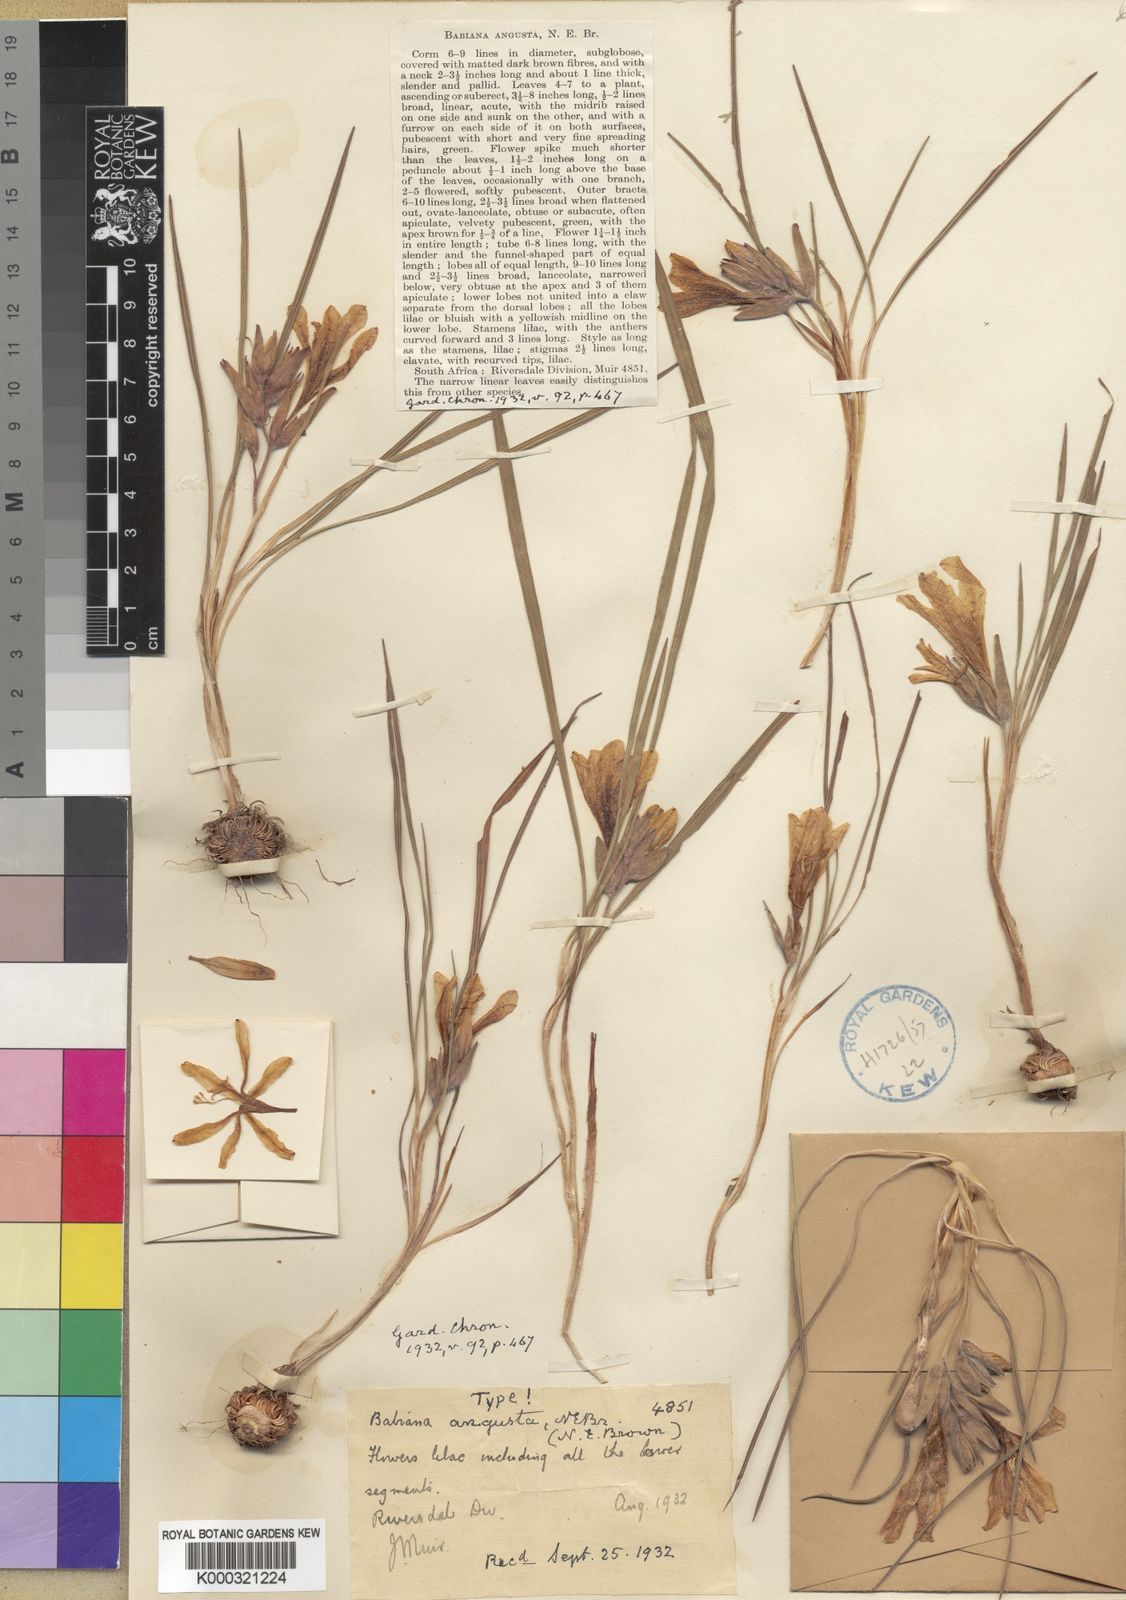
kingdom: Plantae
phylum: Tracheophyta
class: Liliopsida
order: Asparagales
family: Iridaceae
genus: Babiana
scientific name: Babiana nana
